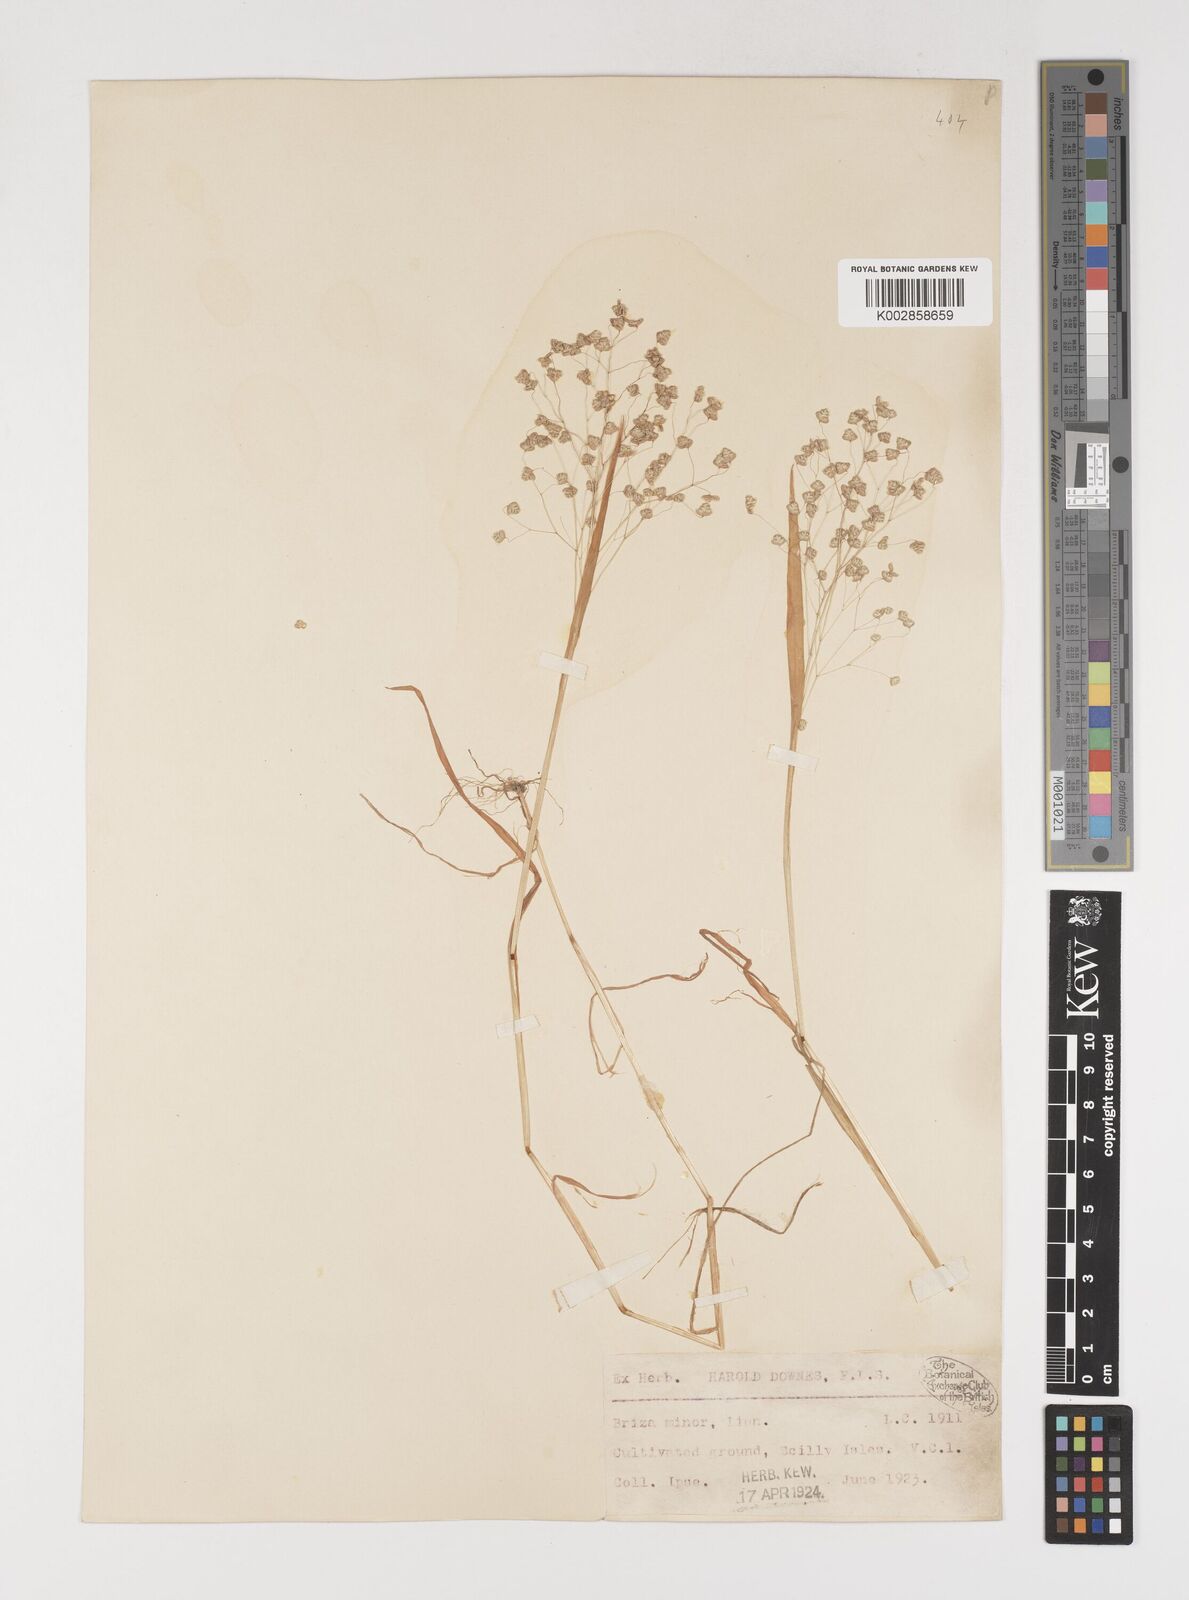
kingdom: Plantae
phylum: Tracheophyta
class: Liliopsida
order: Poales
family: Poaceae
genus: Briza
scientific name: Briza minor
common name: Lesser quaking-grass
